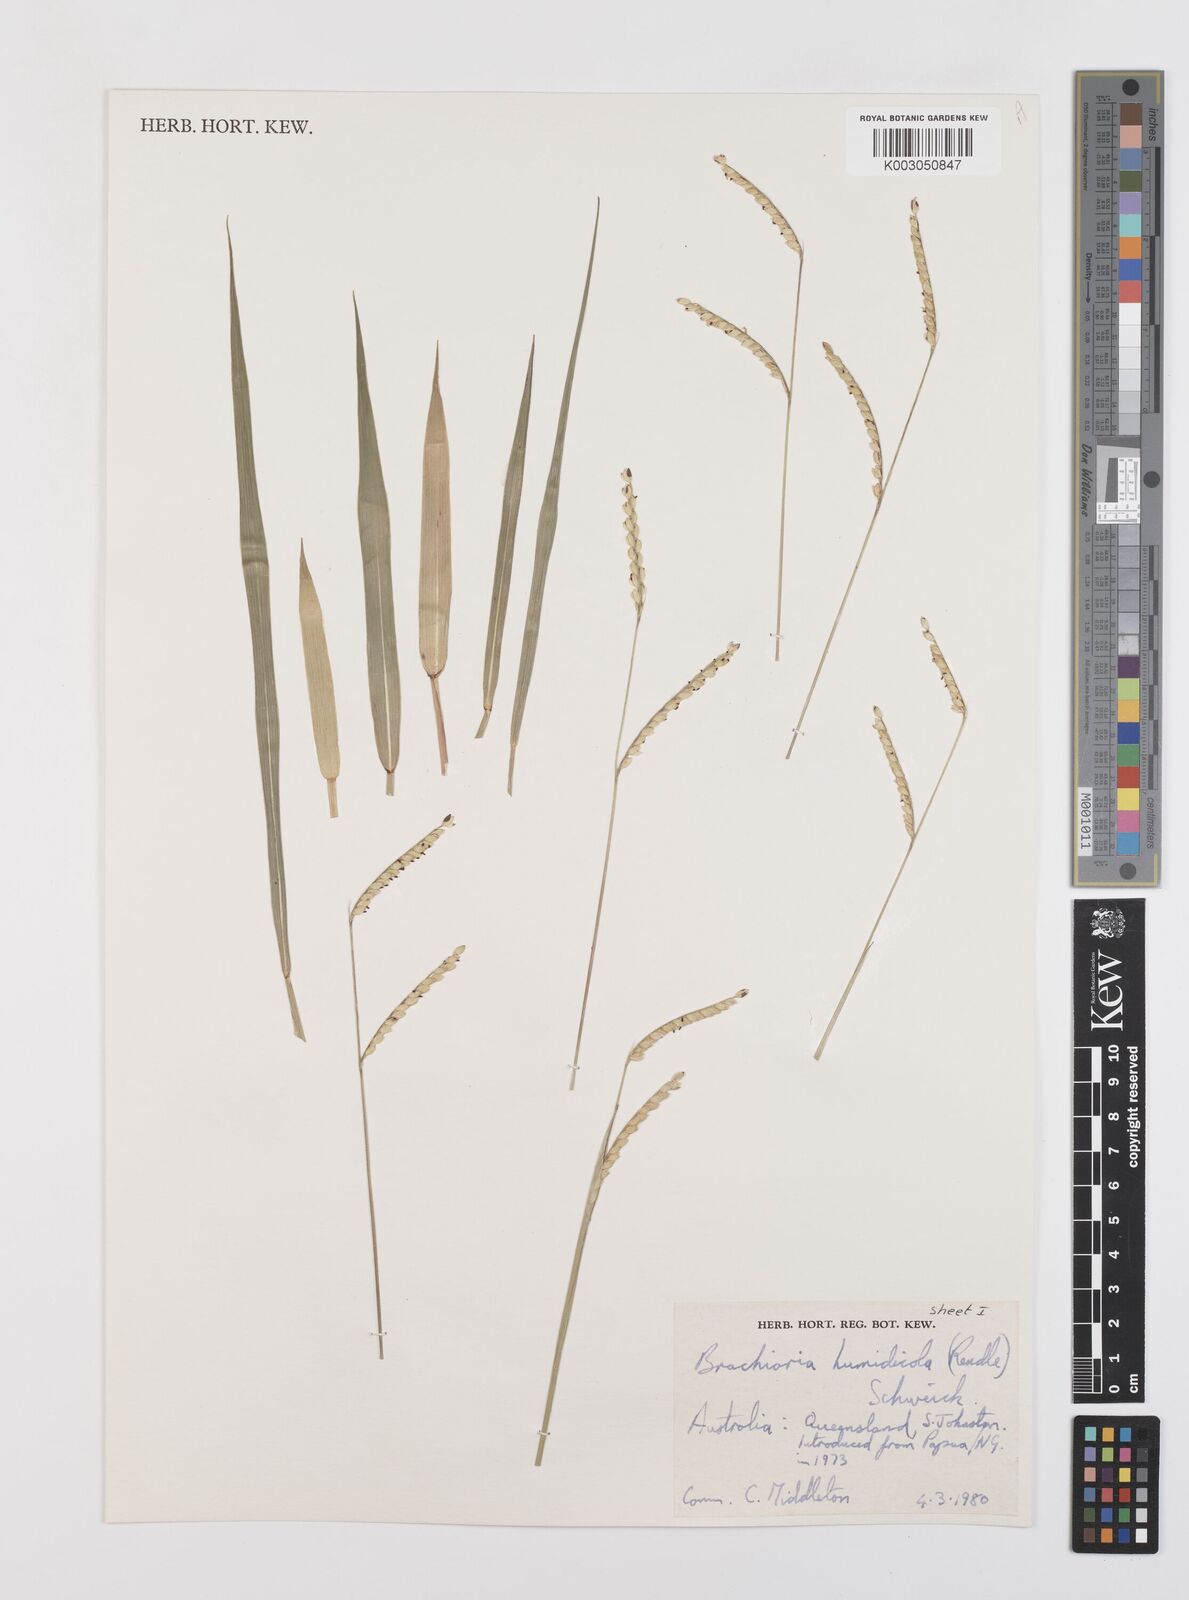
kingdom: Plantae
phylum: Tracheophyta
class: Liliopsida
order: Poales
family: Poaceae
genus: Urochloa
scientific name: Urochloa dictyoneura
